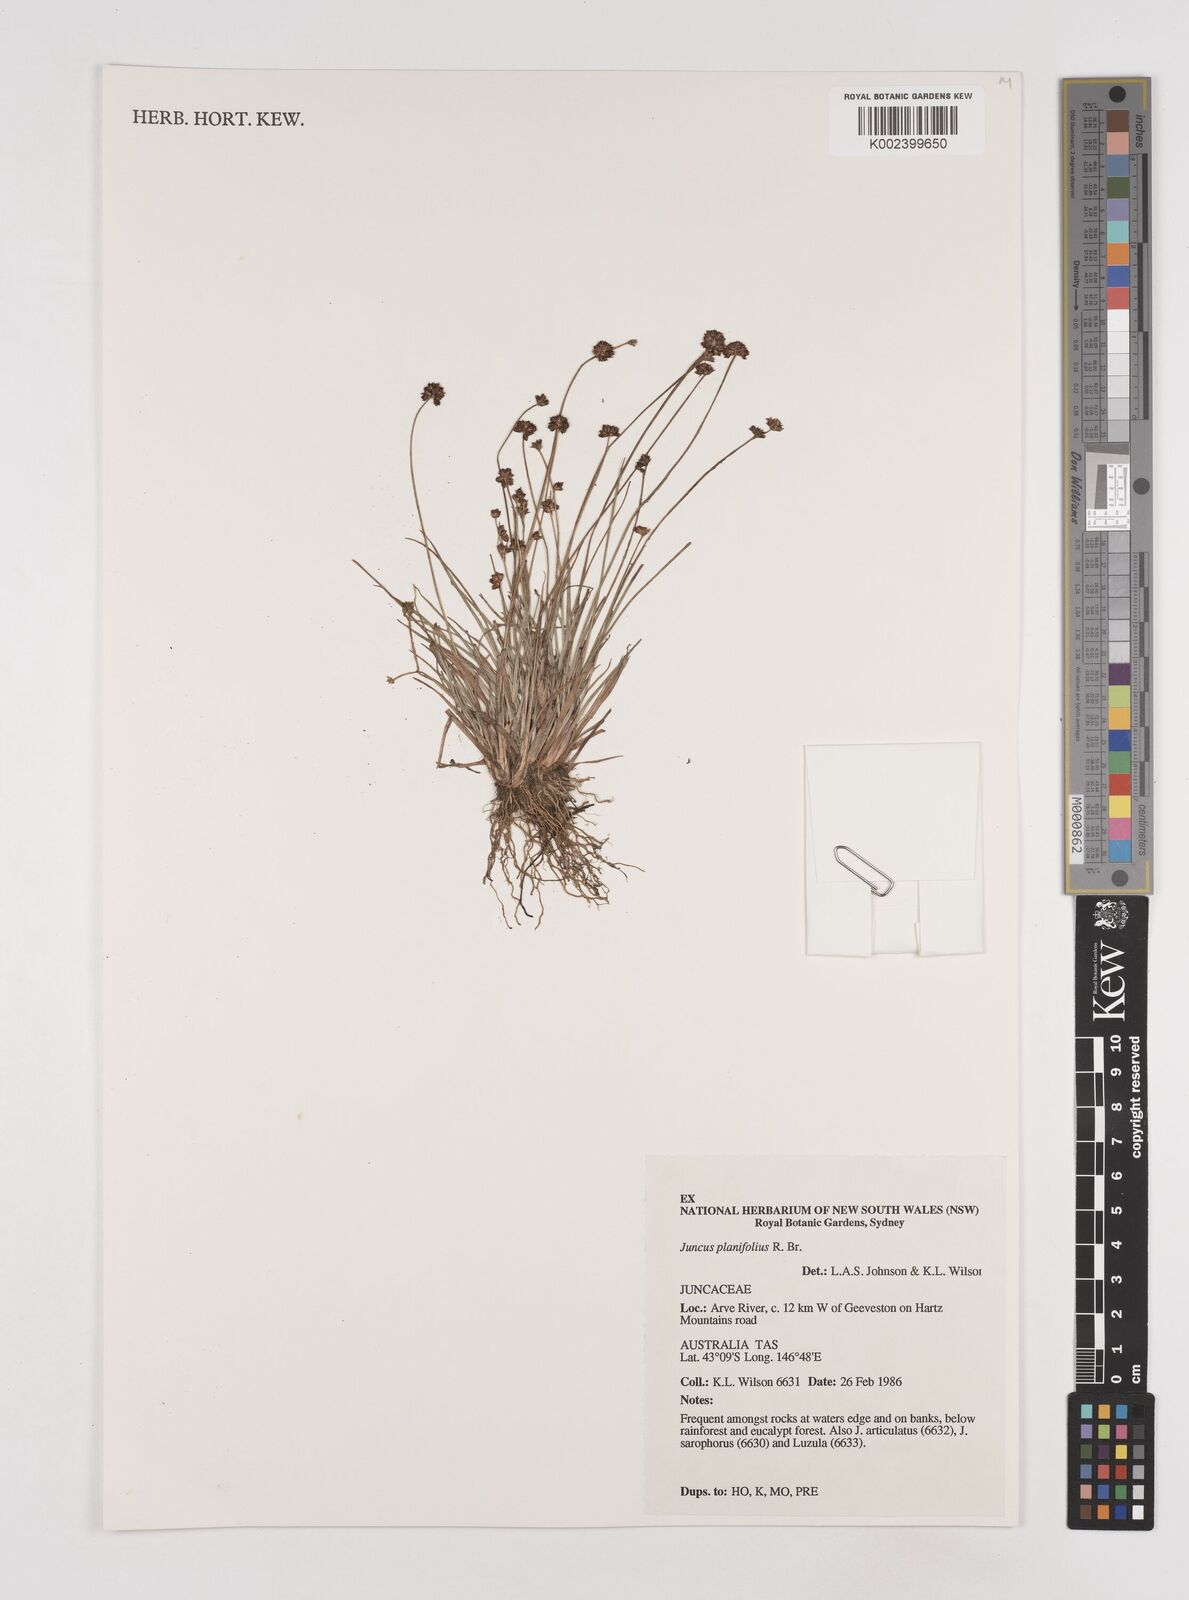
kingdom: Plantae
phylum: Tracheophyta
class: Liliopsida
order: Poales
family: Juncaceae
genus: Juncus
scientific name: Juncus planifolius
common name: Broadleaf rush
